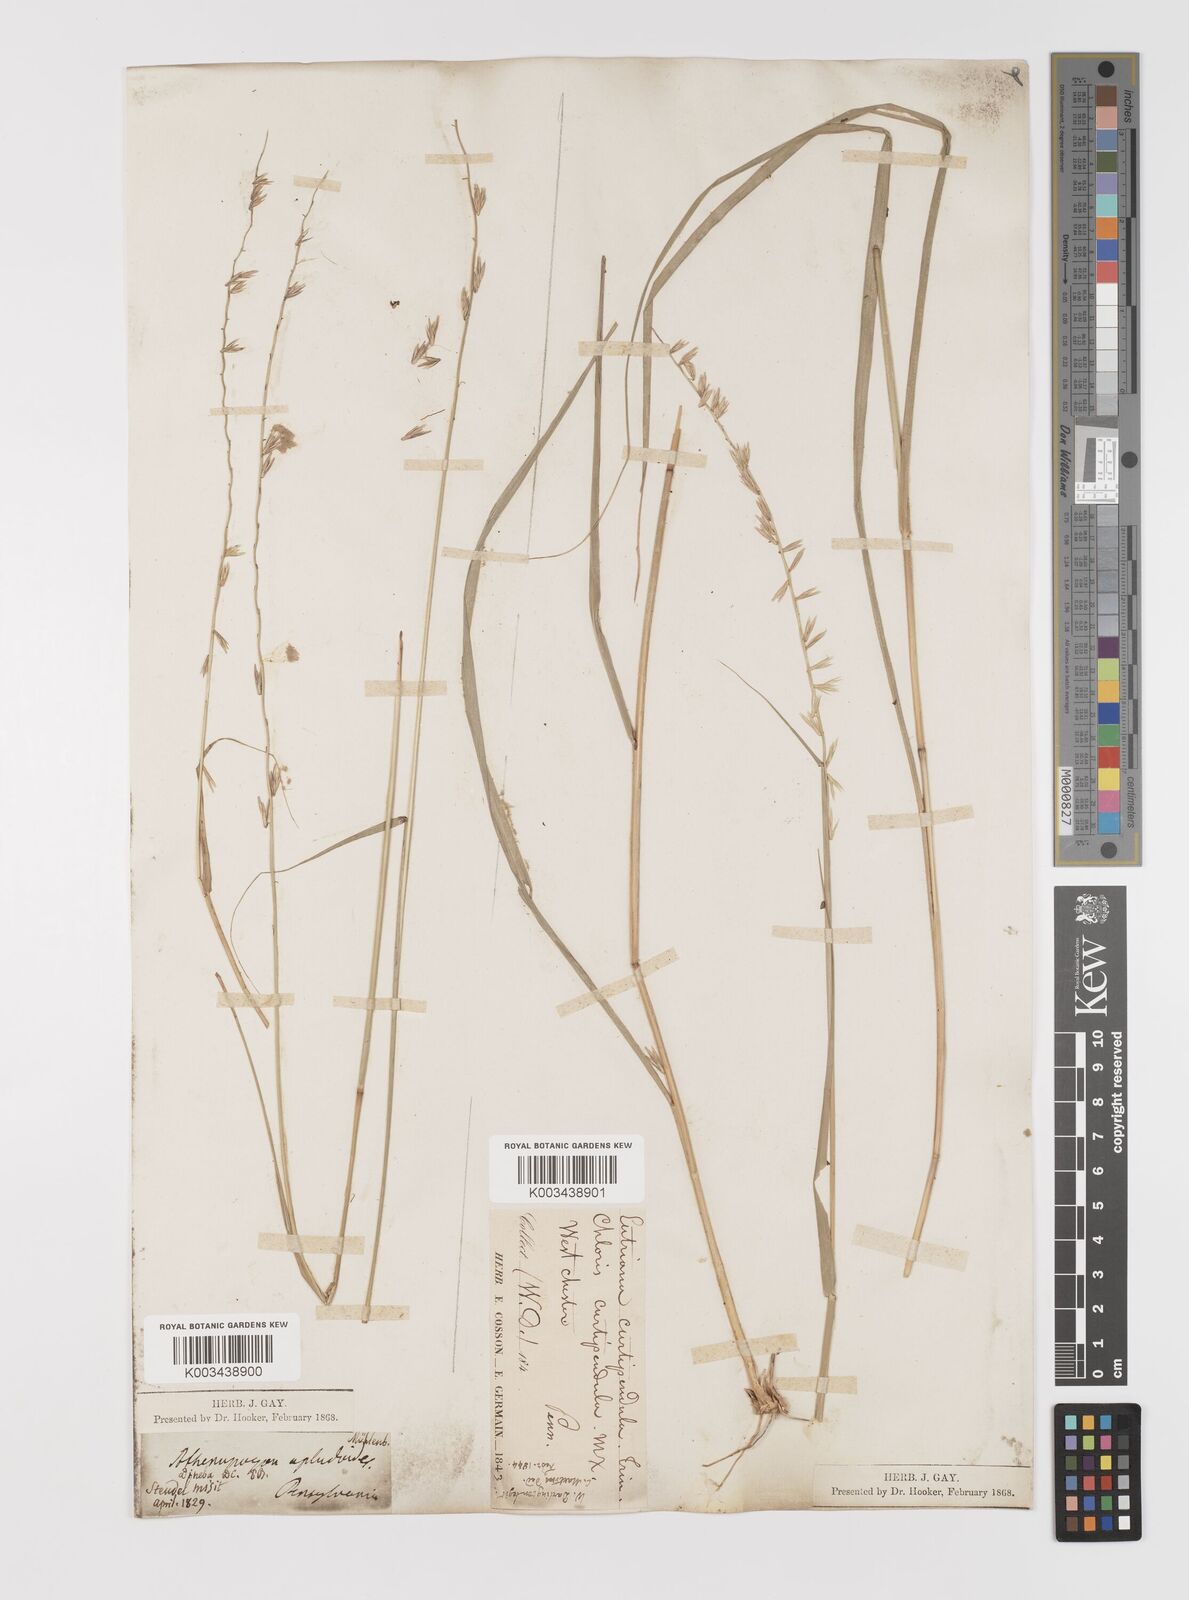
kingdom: Plantae
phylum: Tracheophyta
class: Liliopsida
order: Poales
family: Poaceae
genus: Bouteloua
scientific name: Bouteloua curtipendula
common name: Side-oats grama
